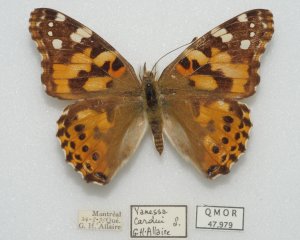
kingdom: Animalia
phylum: Arthropoda
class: Insecta
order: Lepidoptera
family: Nymphalidae
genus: Vanessa
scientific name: Vanessa cardui
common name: Painted Lady
